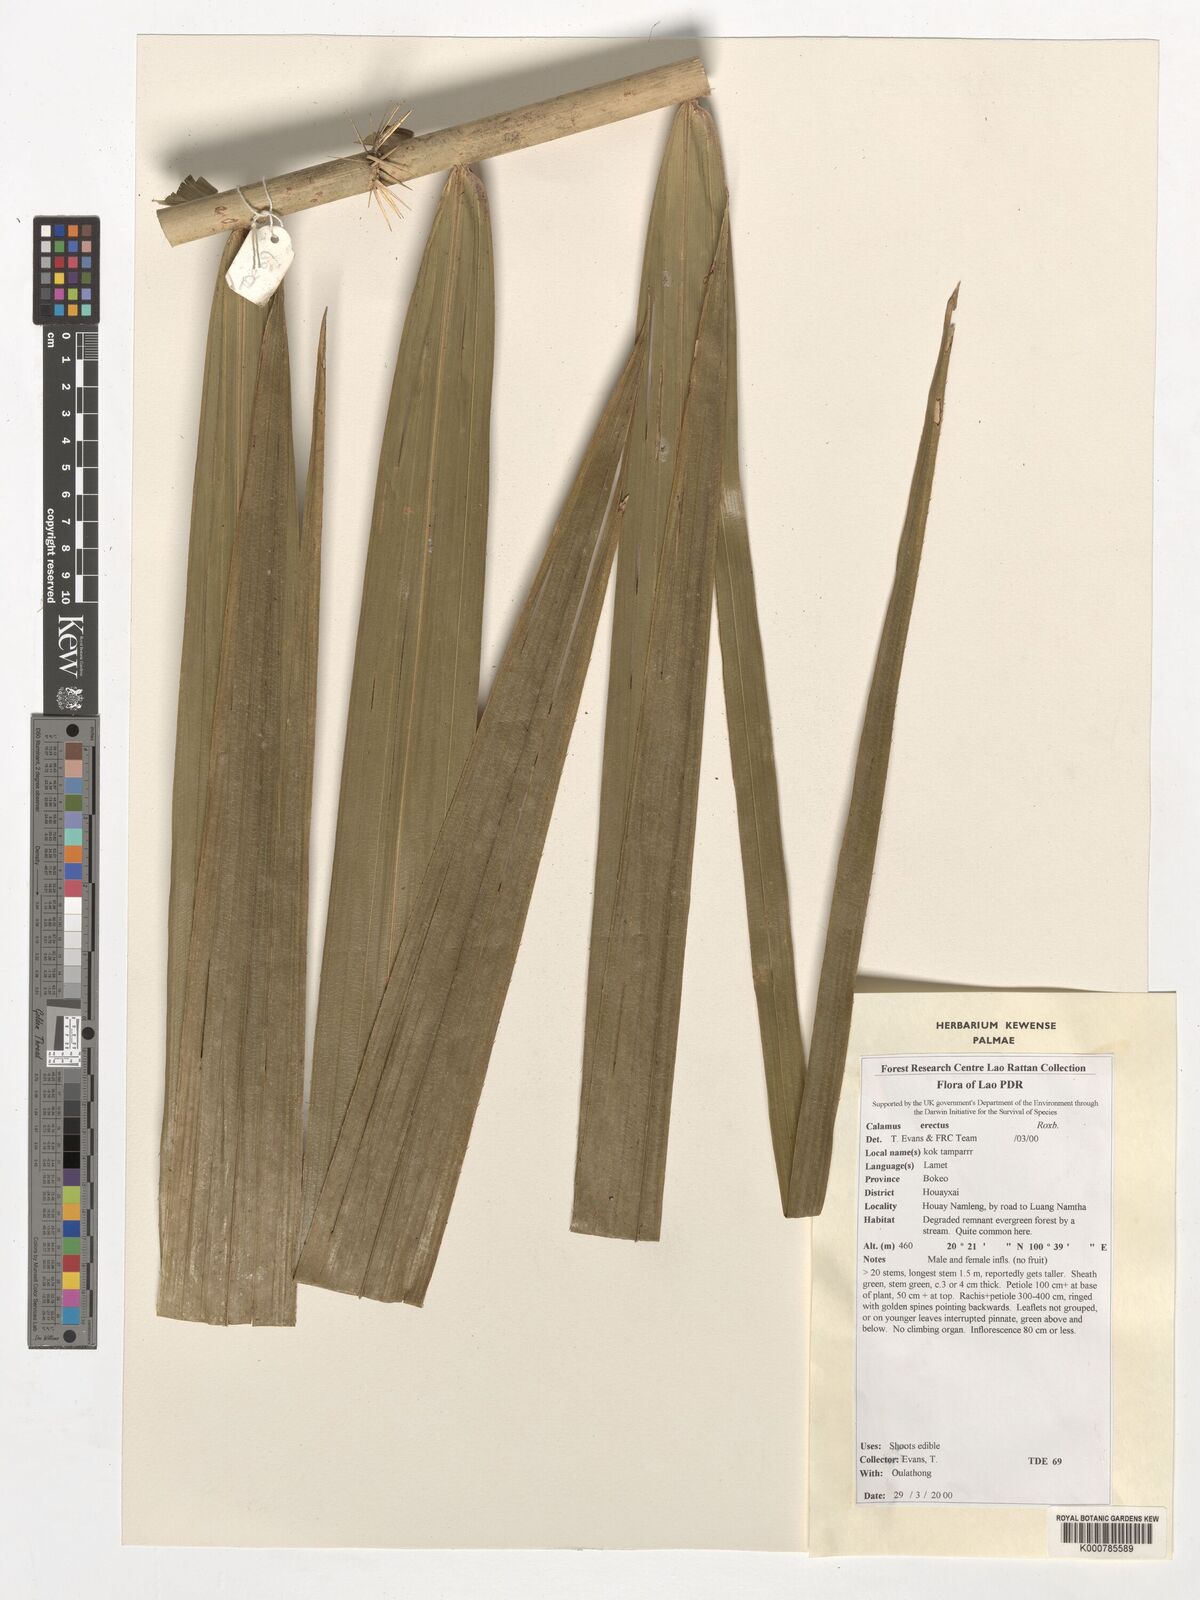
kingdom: Plantae
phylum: Tracheophyta
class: Liliopsida
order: Arecales
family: Arecaceae
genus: Calamus
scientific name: Calamus erectus
